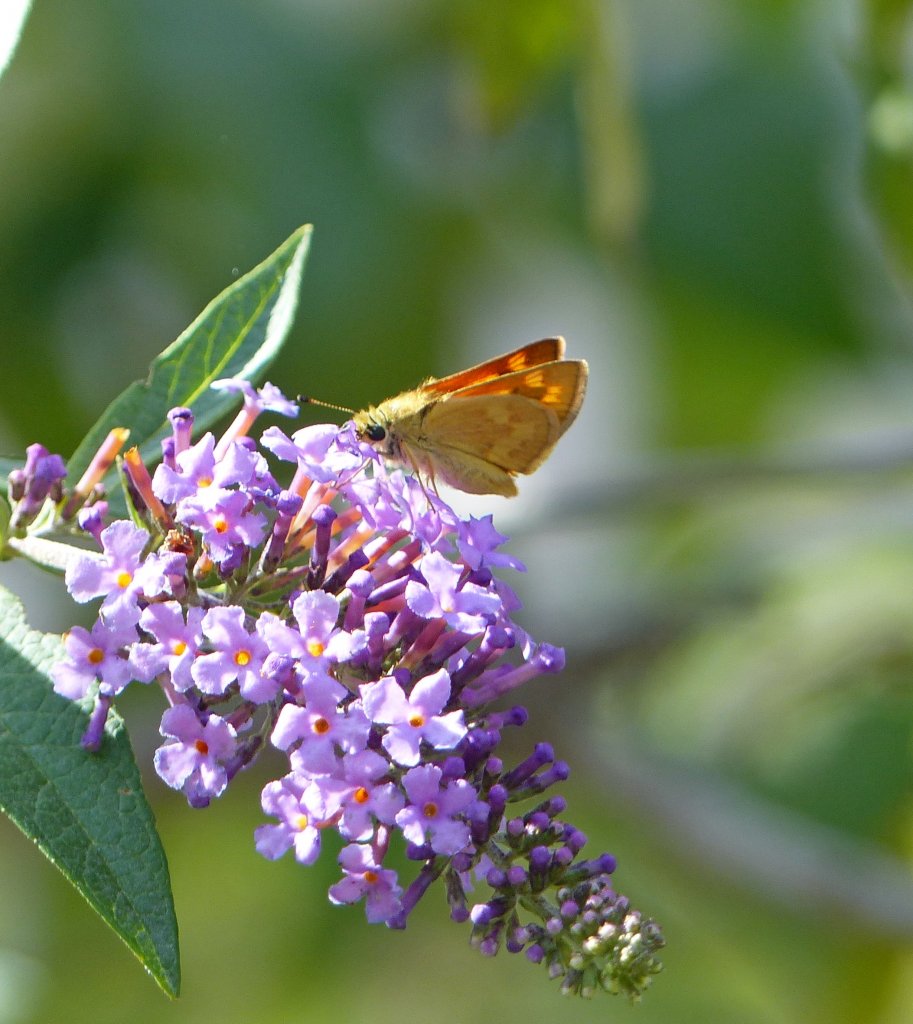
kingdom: Animalia
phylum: Arthropoda
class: Insecta
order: Lepidoptera
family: Hesperiidae
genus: Ochlodes
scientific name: Ochlodes sylvanoides
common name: Woodland Skipper
